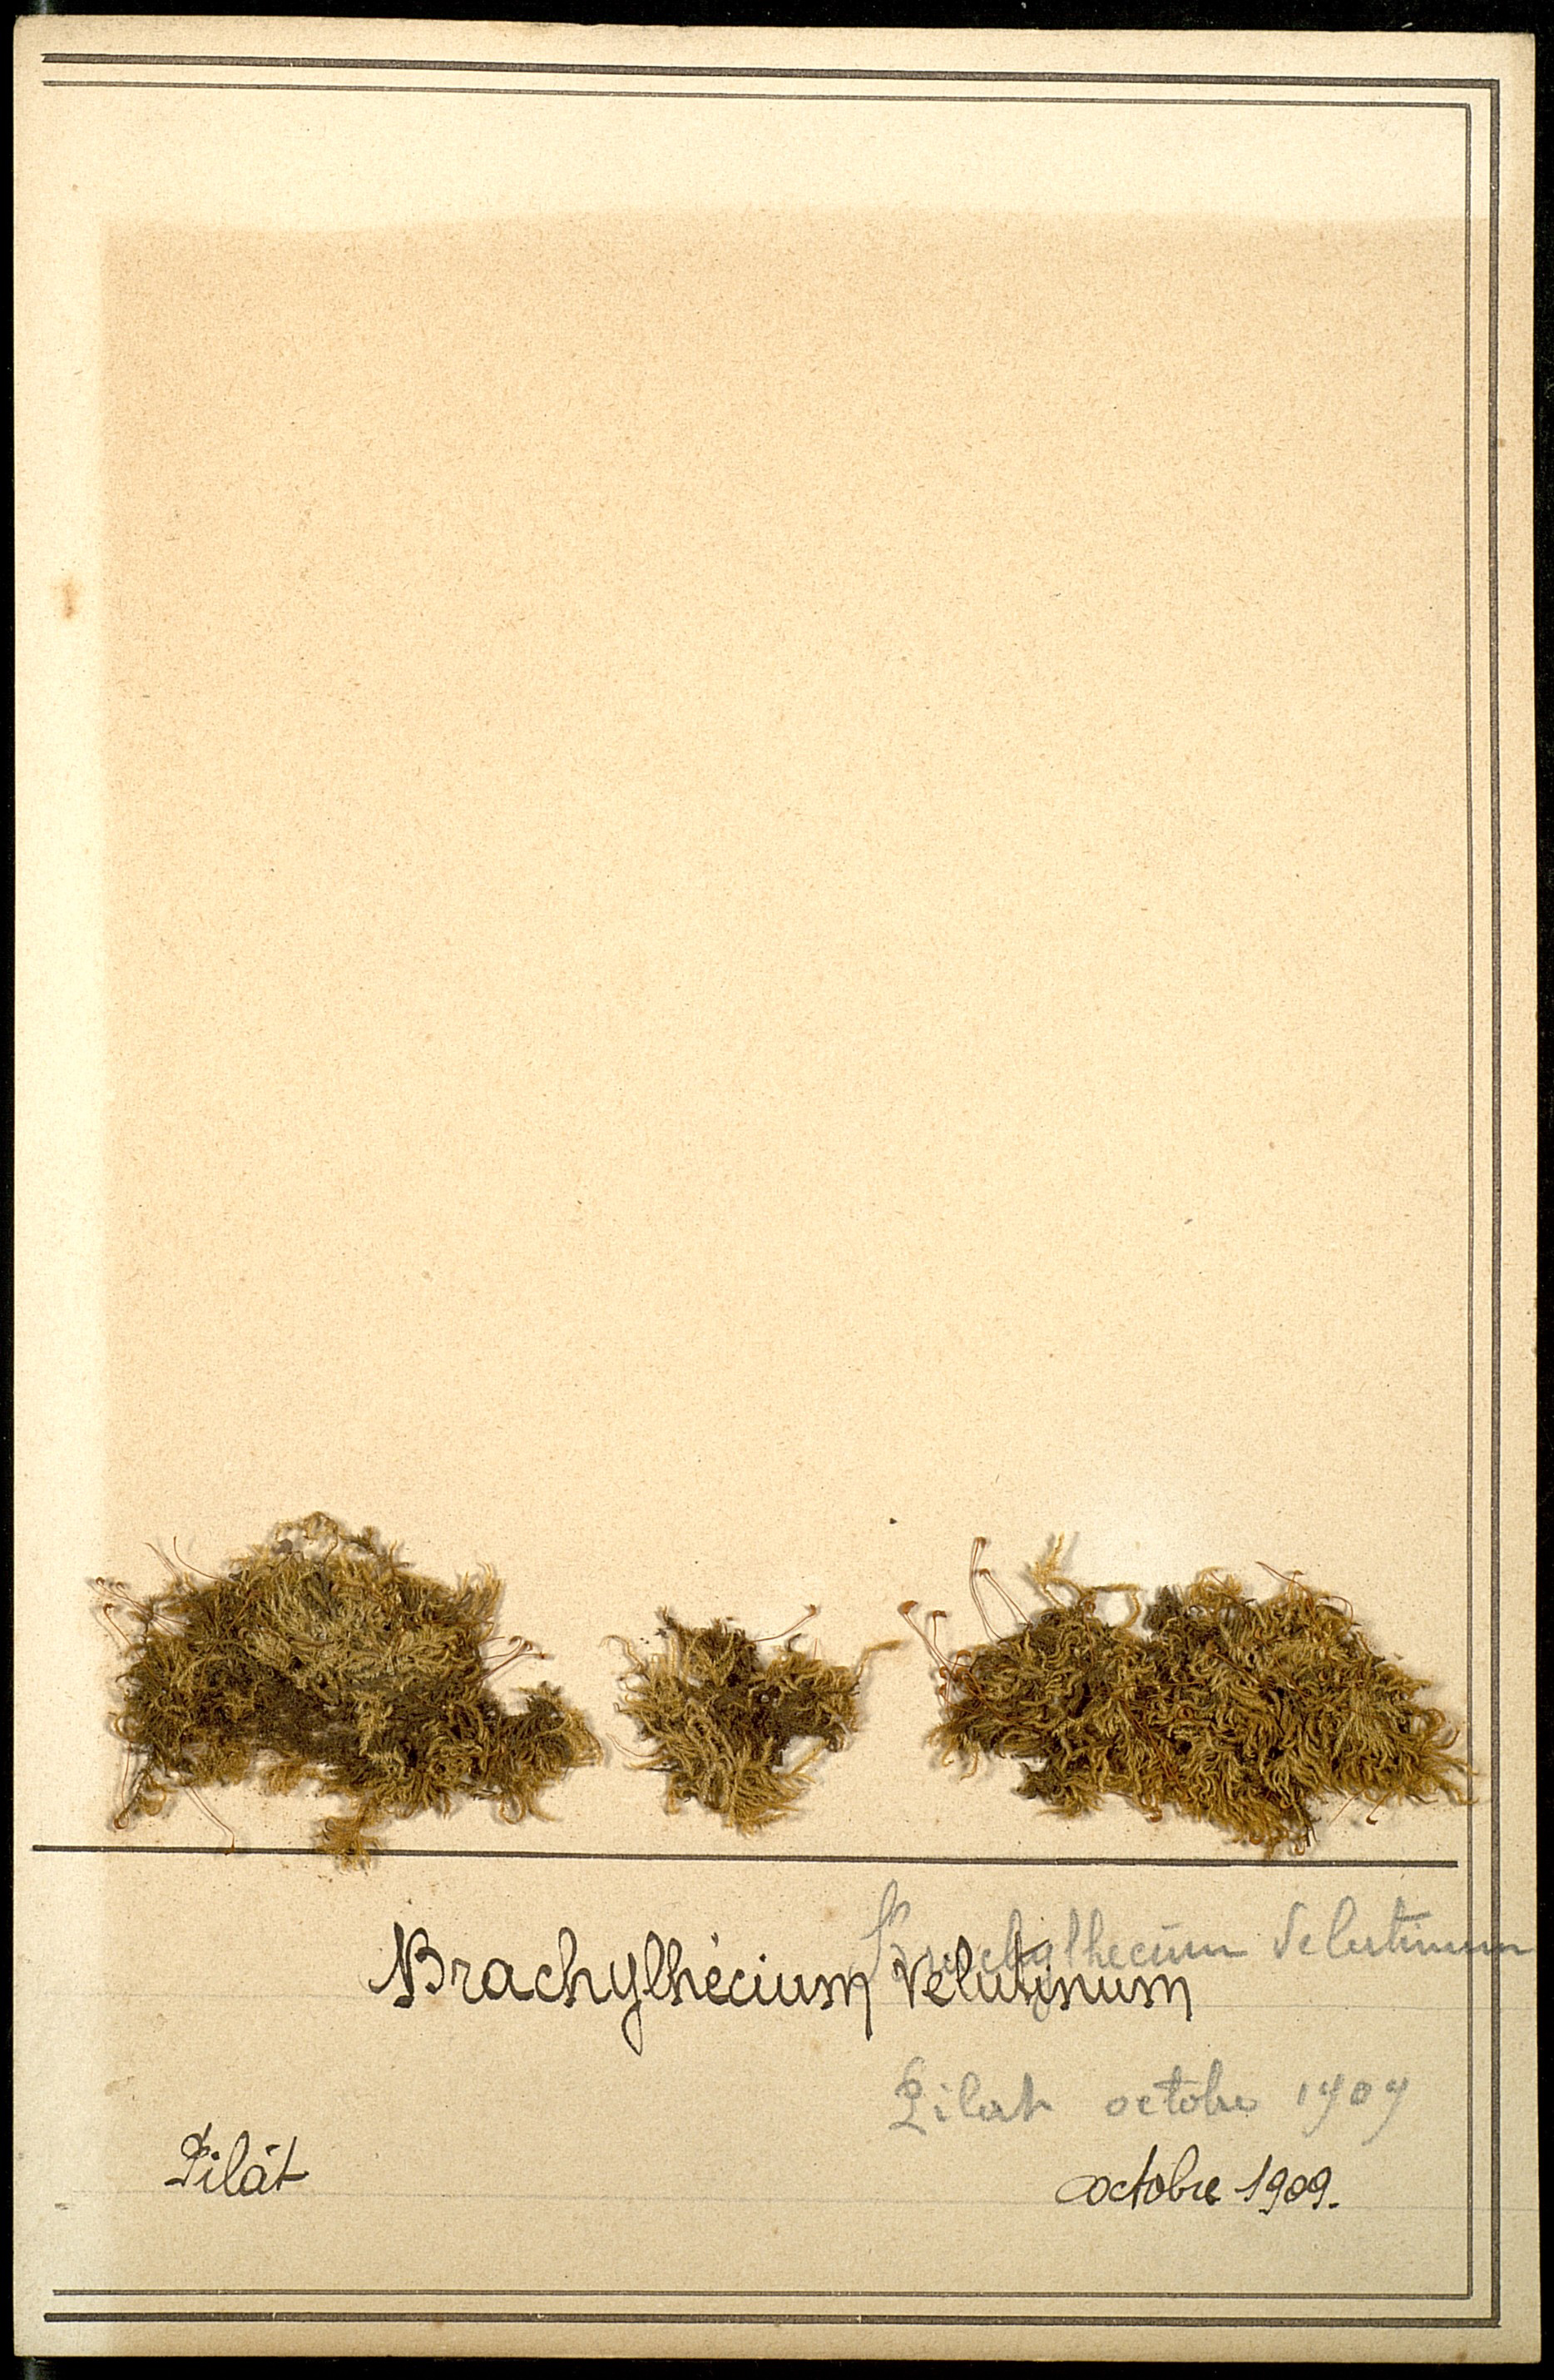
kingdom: Plantae
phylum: Bryophyta
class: Bryopsida
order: Hypnales
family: Brachytheciaceae
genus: Brachytheciastrum
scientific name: Brachytheciastrum velutinum
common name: Velvet feather-moss
